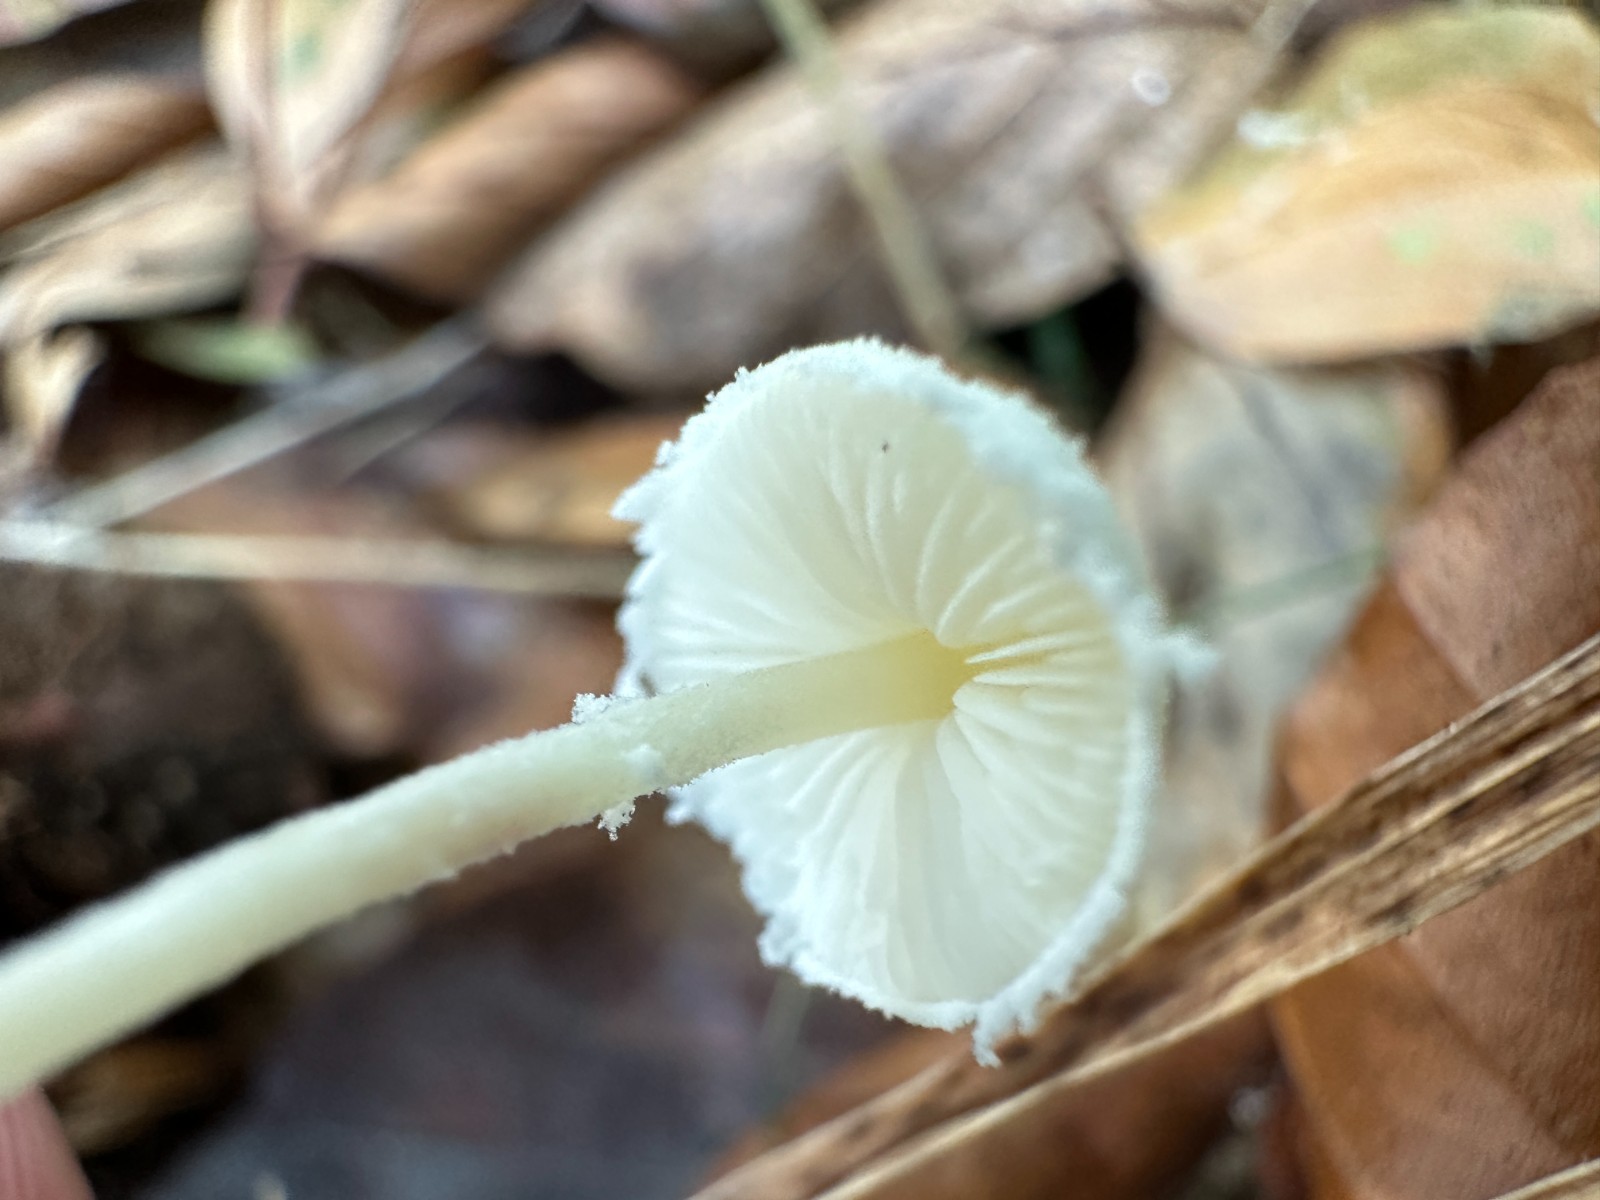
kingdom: Fungi
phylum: Basidiomycota
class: Agaricomycetes
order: Agaricales
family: Agaricaceae
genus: Cystolepiota
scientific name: Cystolepiota seminuda
